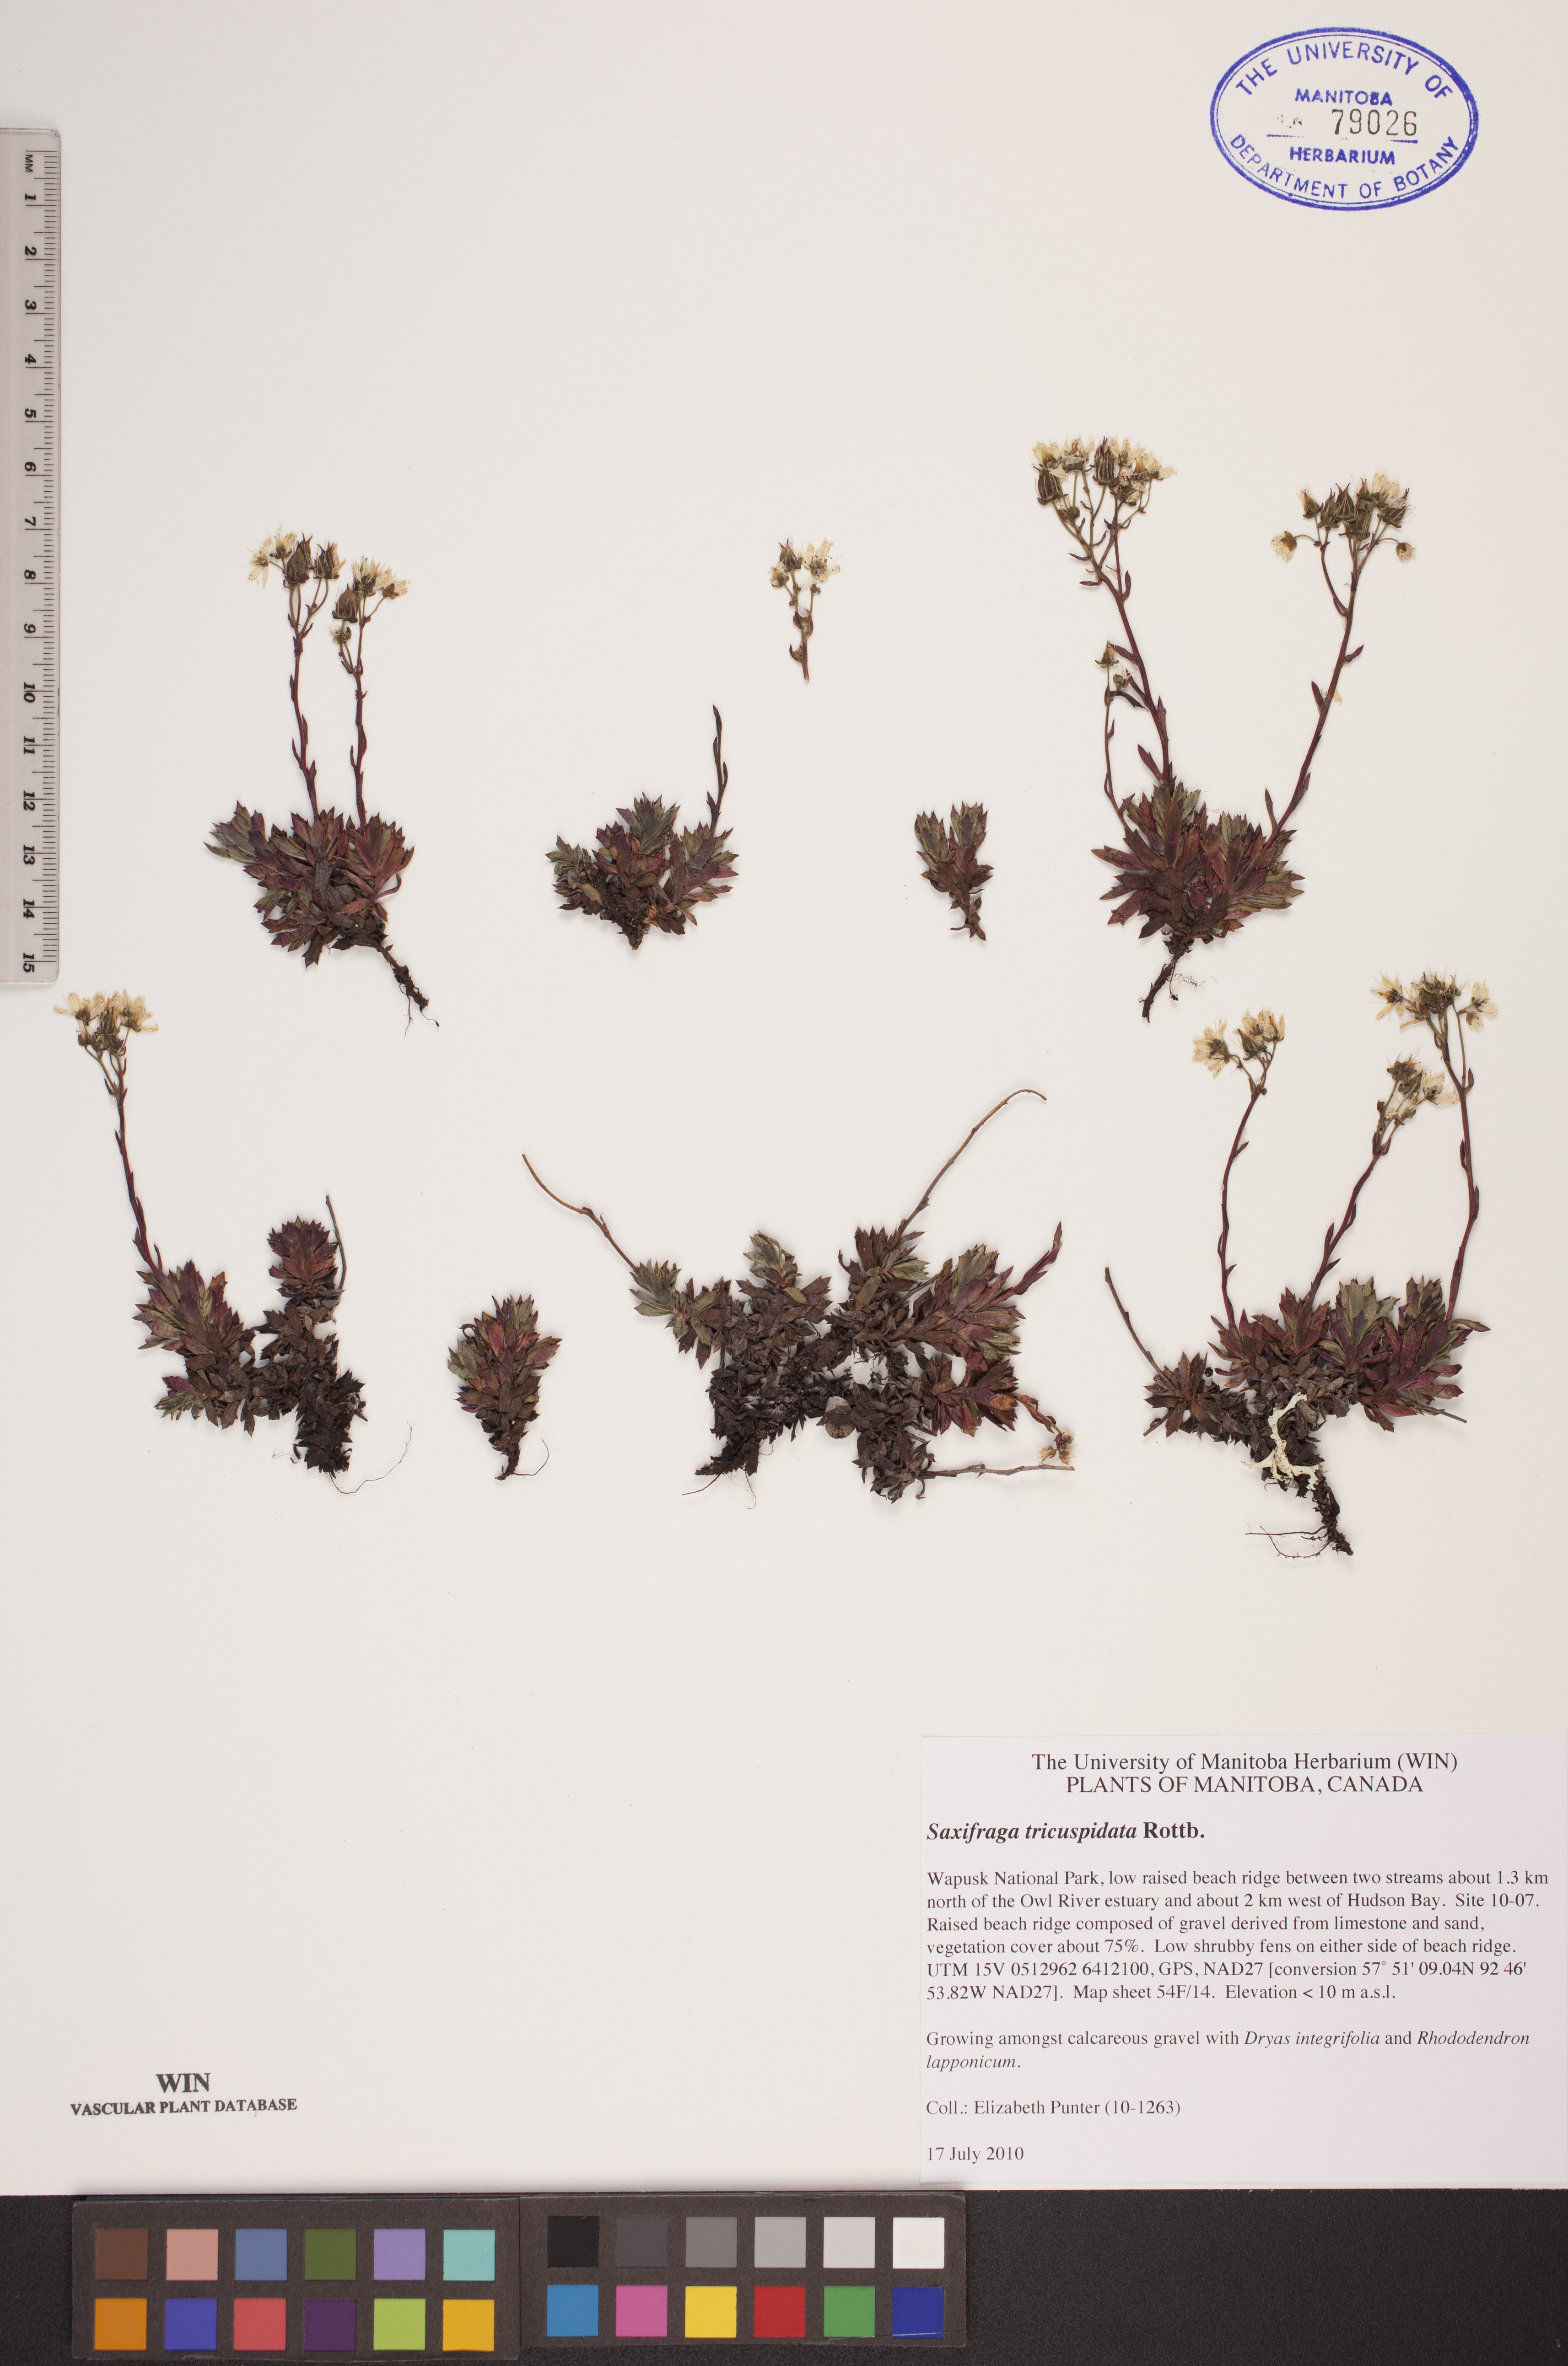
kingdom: Plantae
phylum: Tracheophyta
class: Magnoliopsida
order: Saxifragales
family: Saxifragaceae
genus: Saxifraga
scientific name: Saxifraga tricuspidata
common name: Prickly saxifrage
